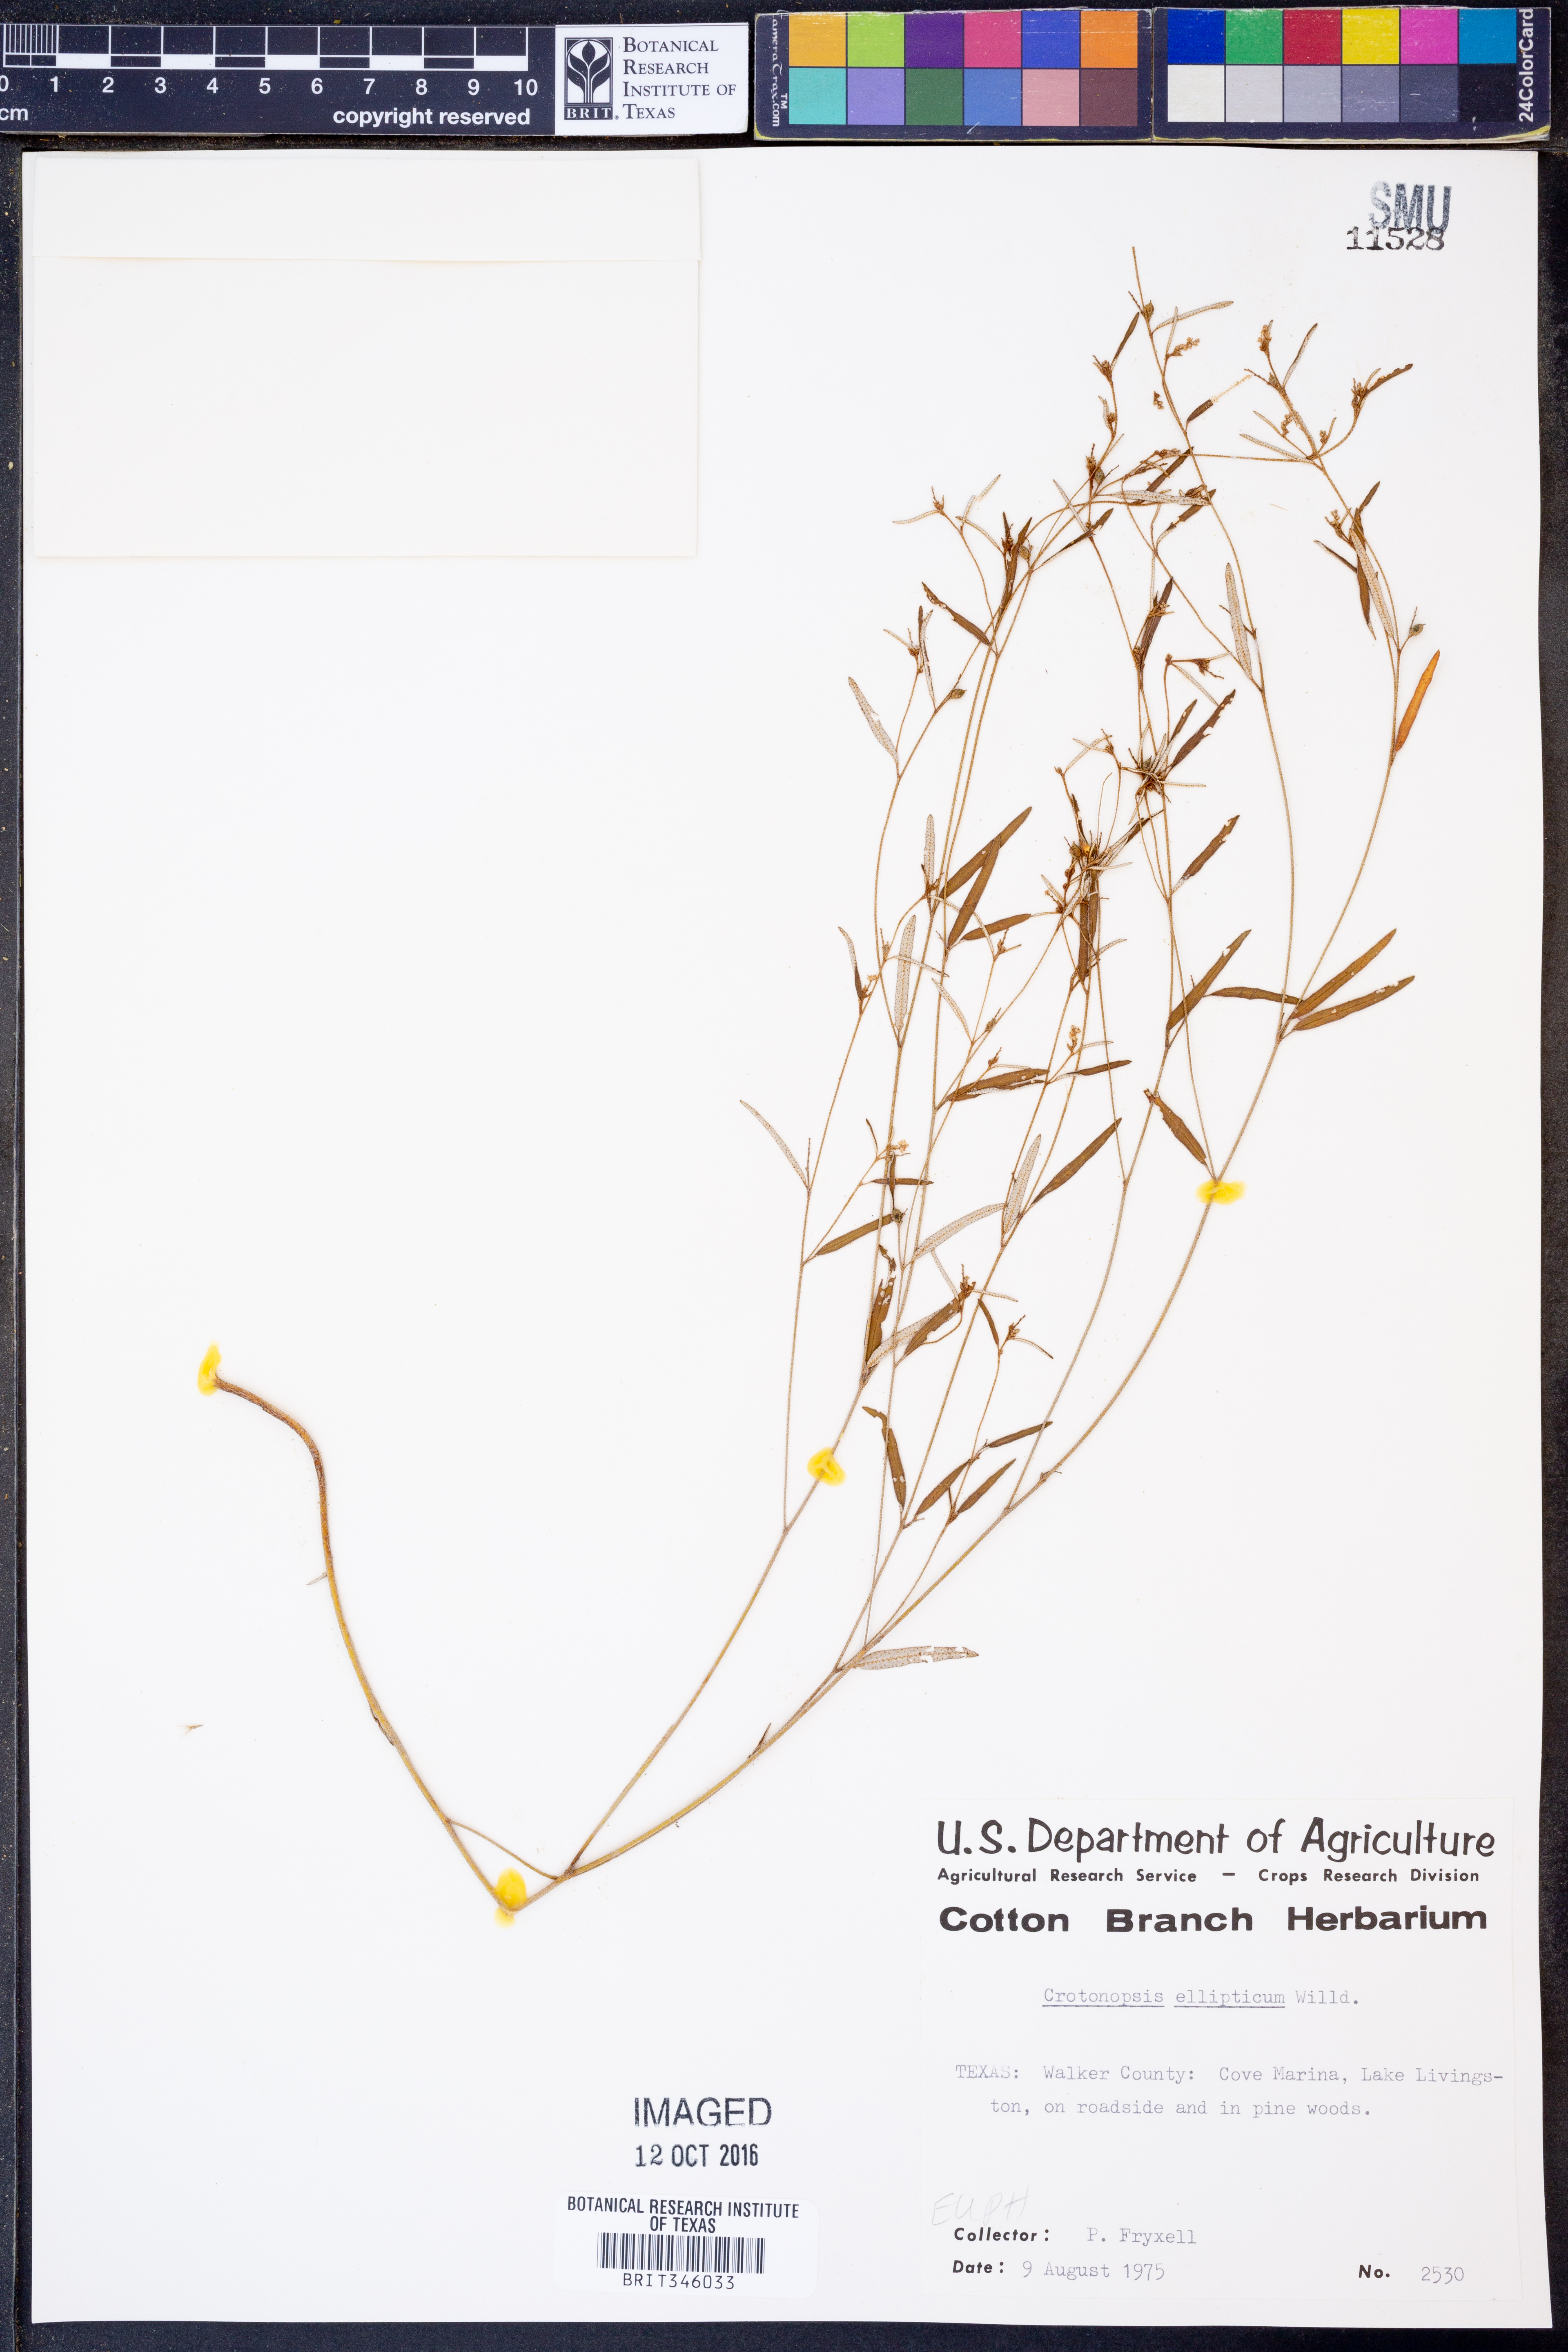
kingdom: Plantae
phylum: Tracheophyta
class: Magnoliopsida
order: Malpighiales
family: Euphorbiaceae
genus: Croton
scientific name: Croton michauxii
